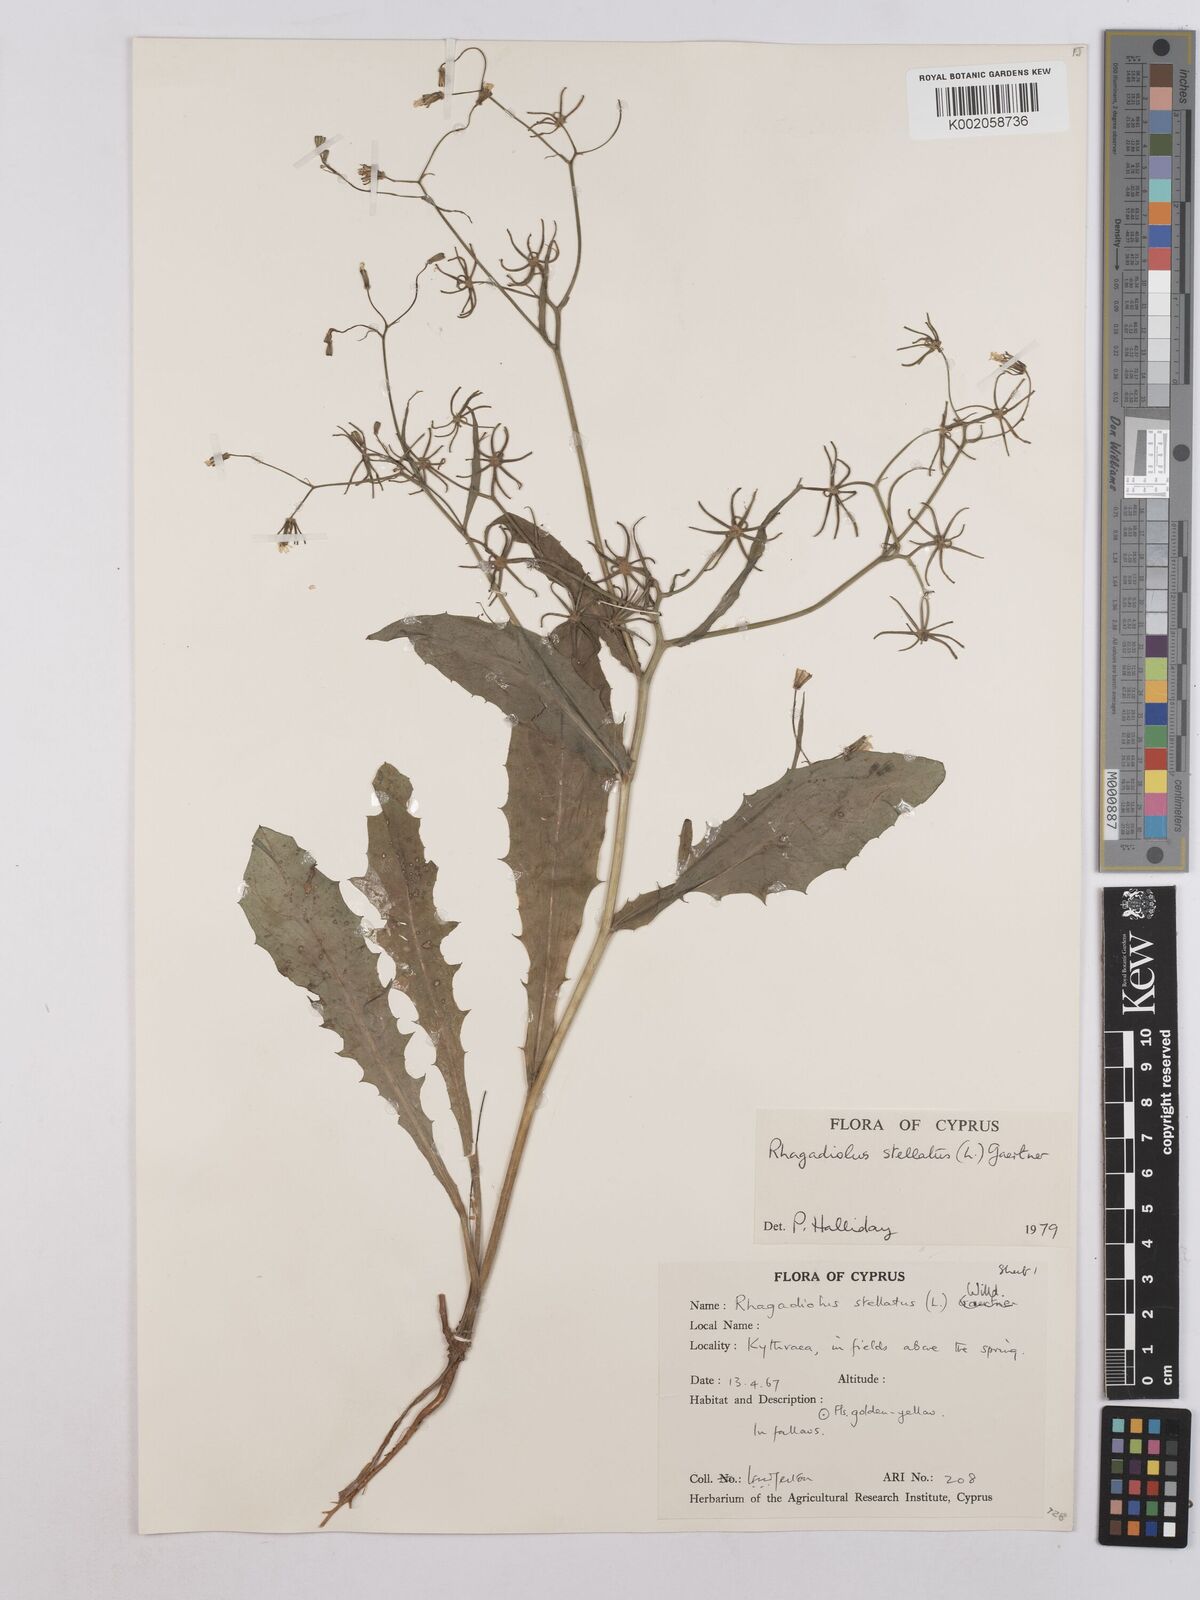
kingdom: Plantae
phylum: Tracheophyta
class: Magnoliopsida
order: Asterales
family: Asteraceae
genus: Rhagadiolus
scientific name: Rhagadiolus stellatus
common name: Star hawkbit
